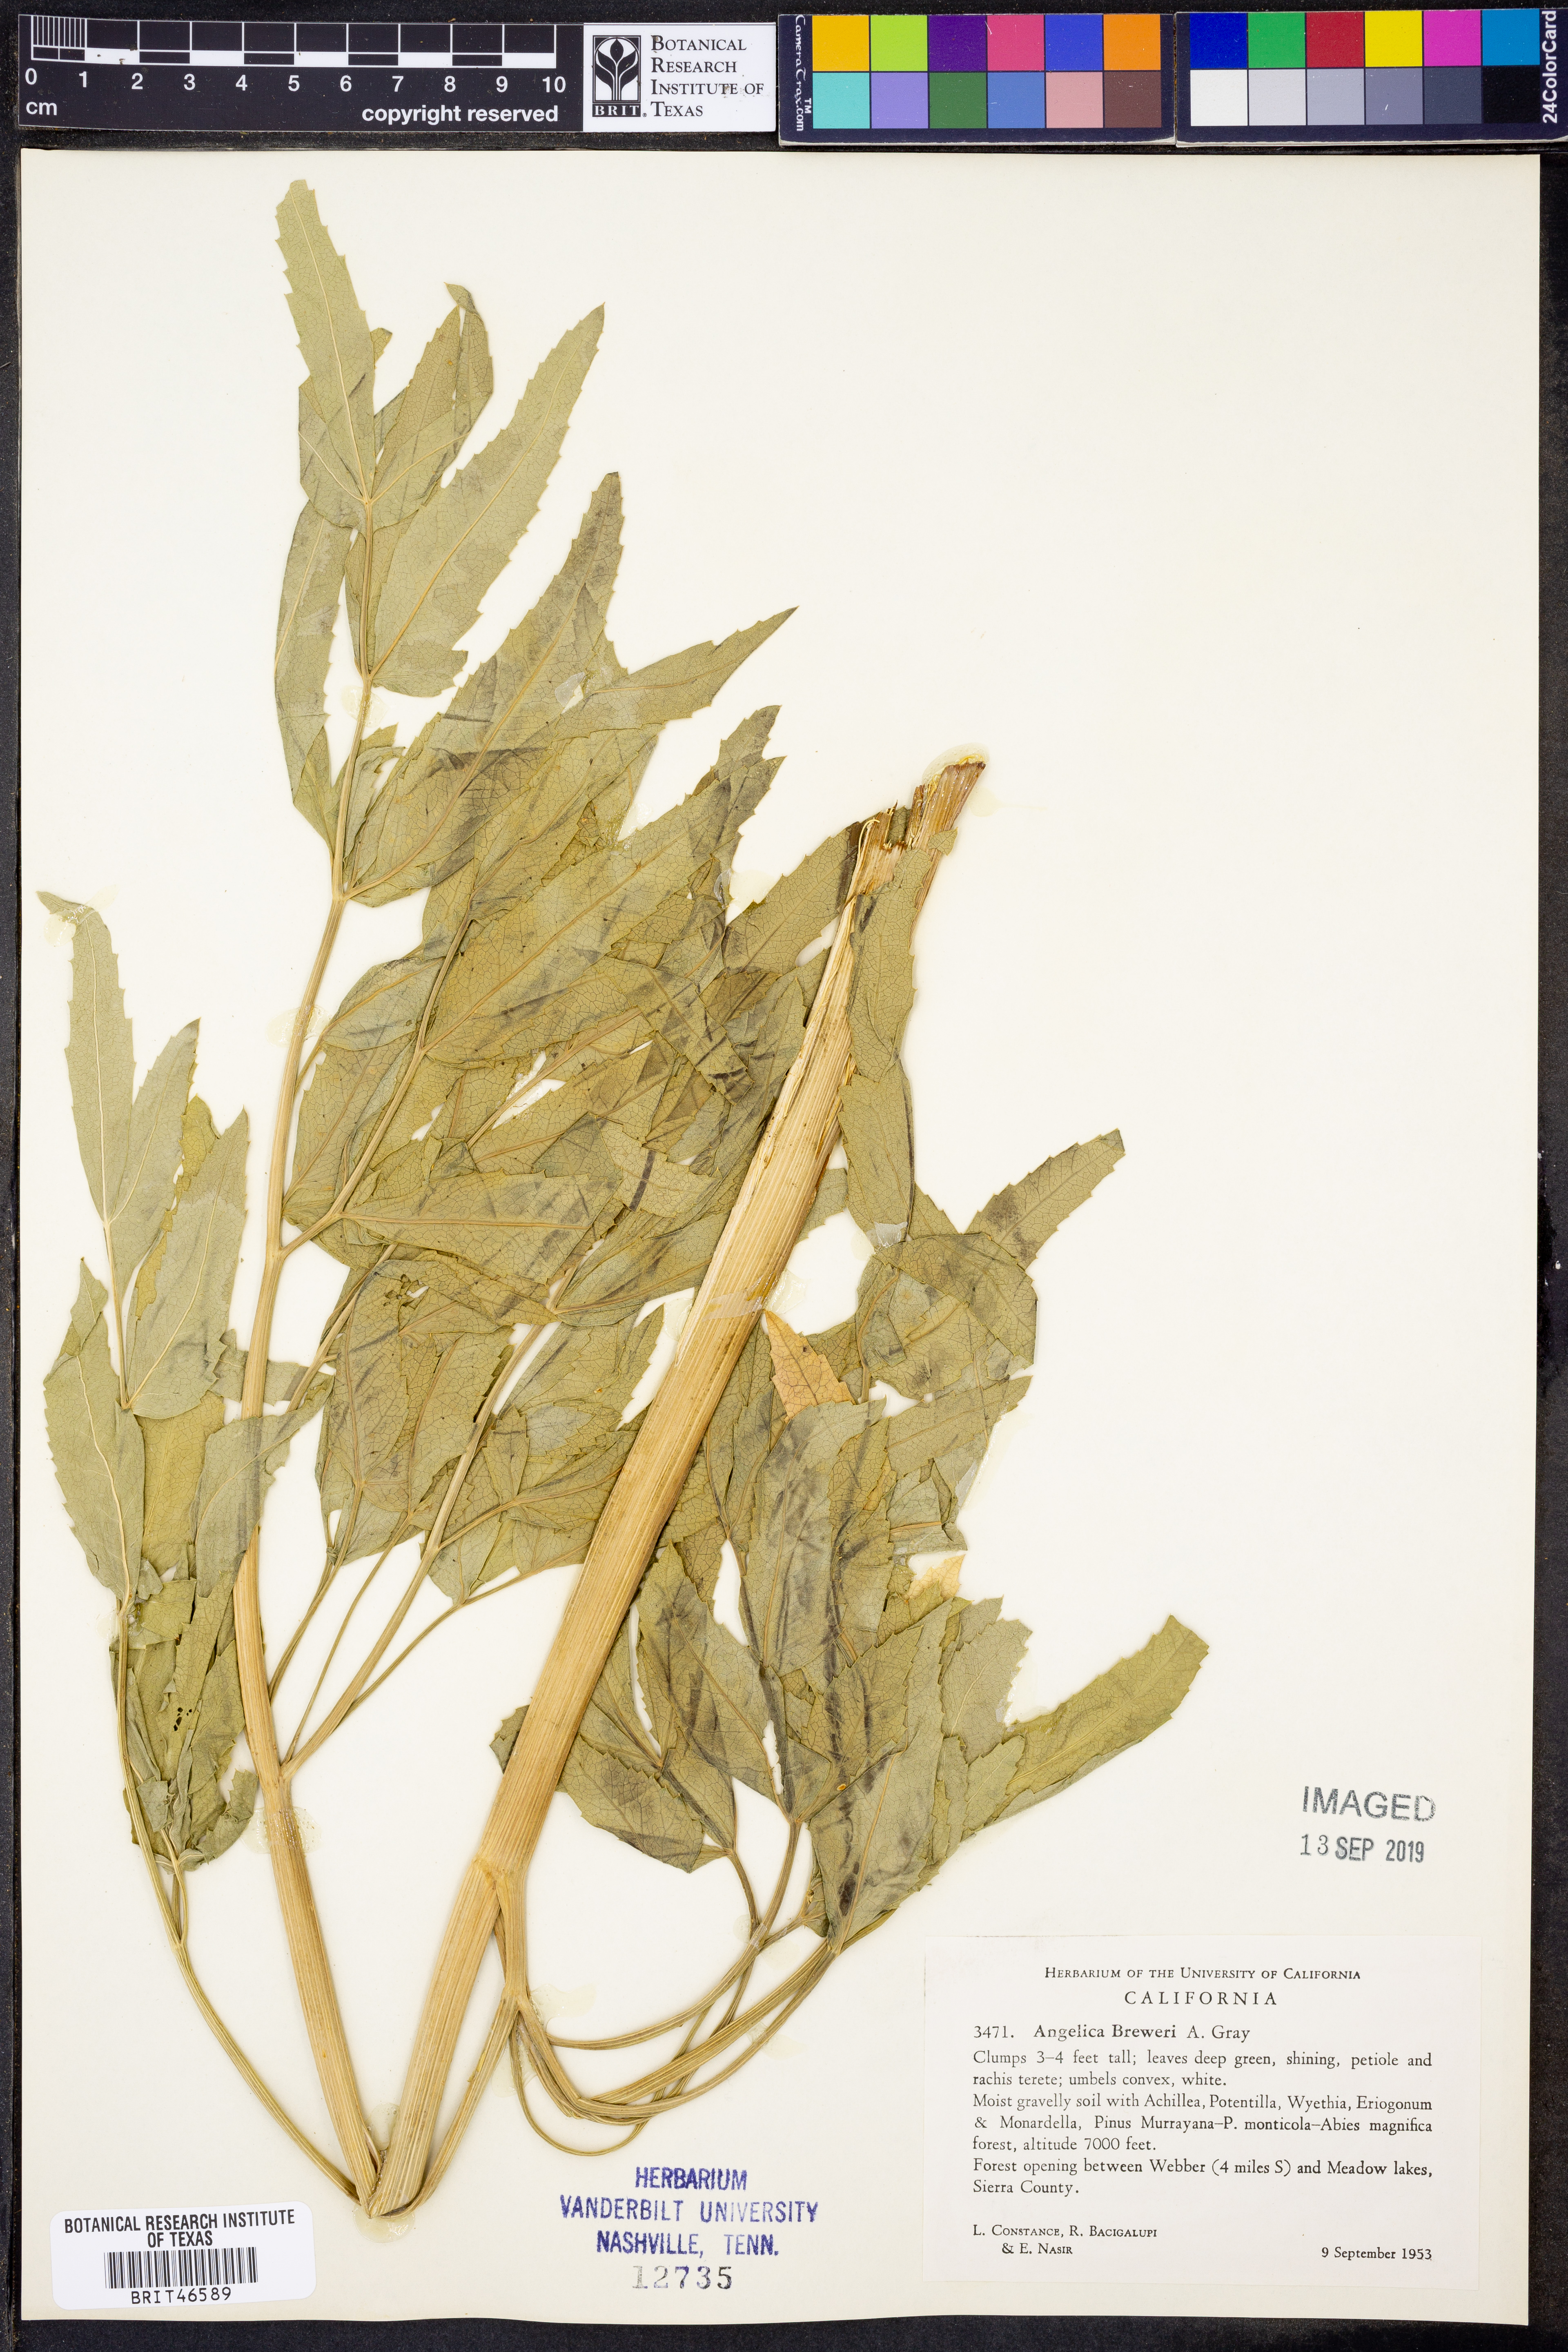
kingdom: Plantae
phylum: Tracheophyta
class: Magnoliopsida
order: Apiales
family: Apiaceae
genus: Angelica
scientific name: Angelica breweri
